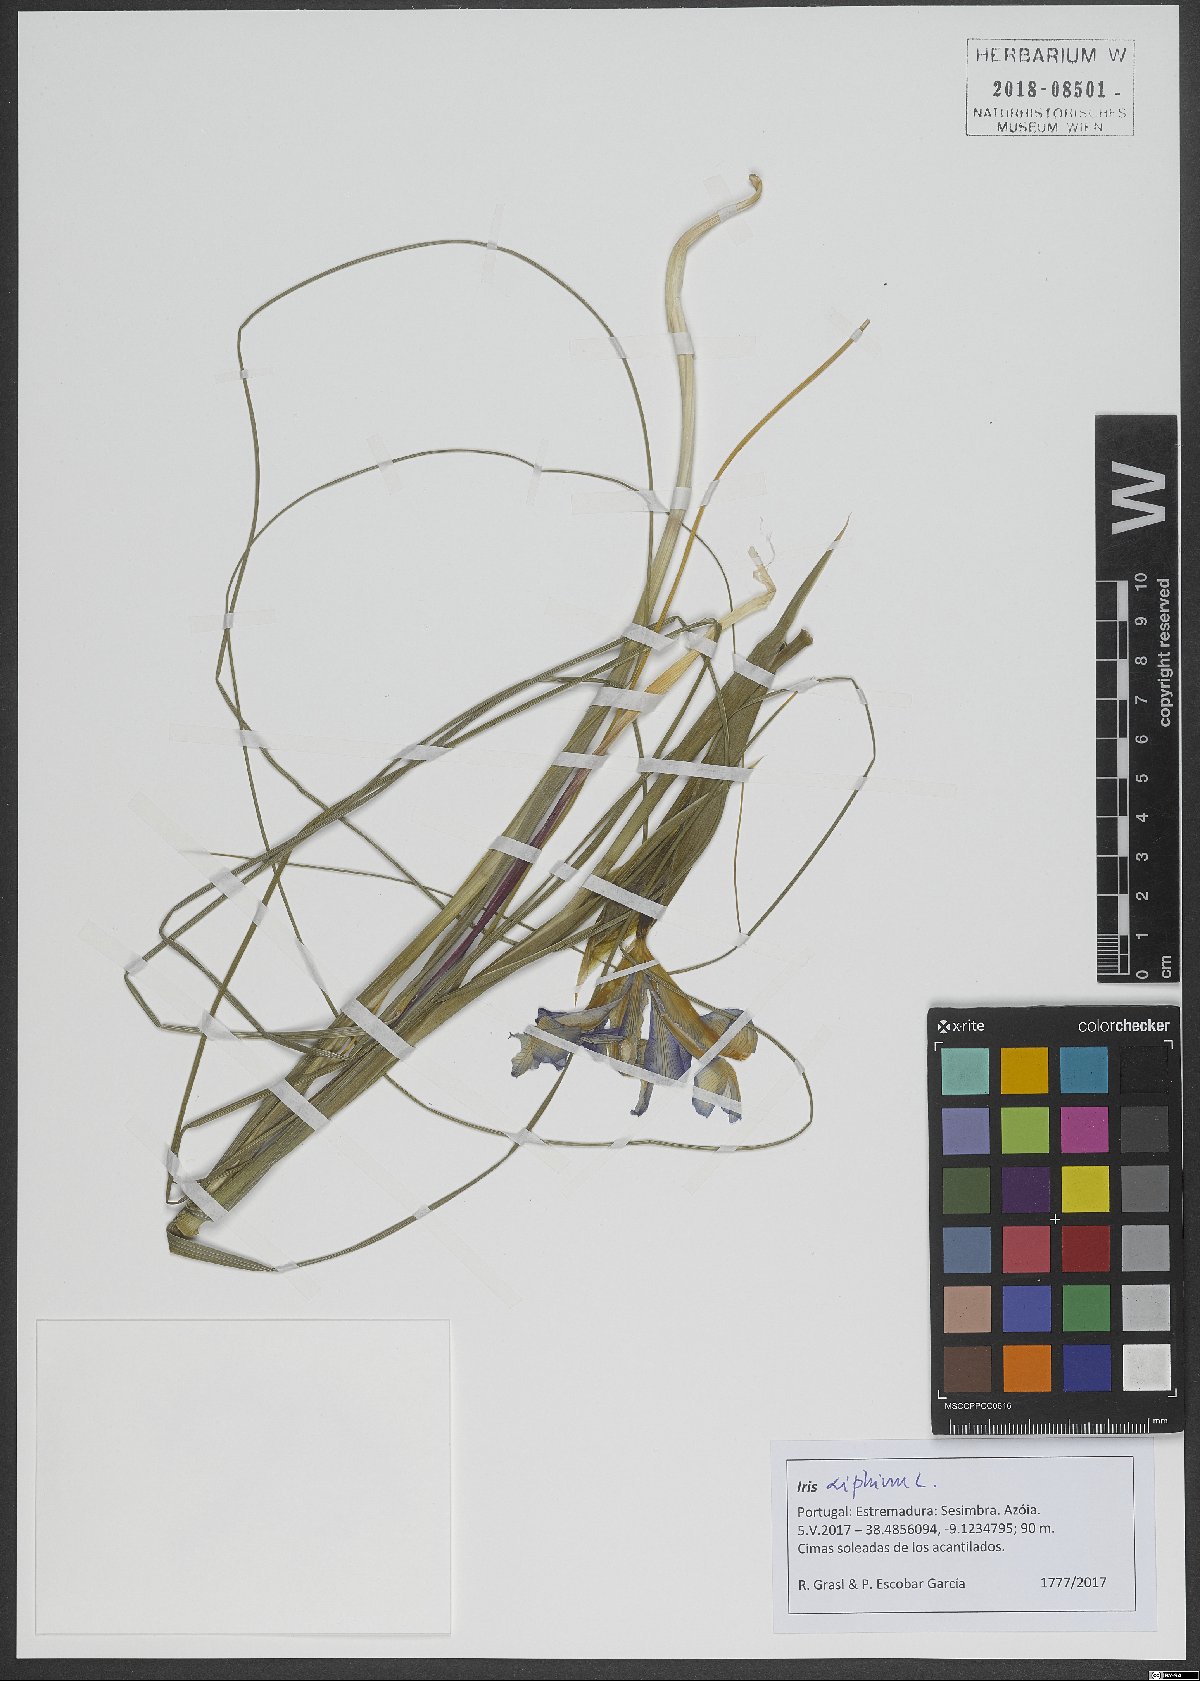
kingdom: Plantae
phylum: Tracheophyta
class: Liliopsida
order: Asparagales
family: Iridaceae
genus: Iris
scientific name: Iris xiphium
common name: Spanish iris
